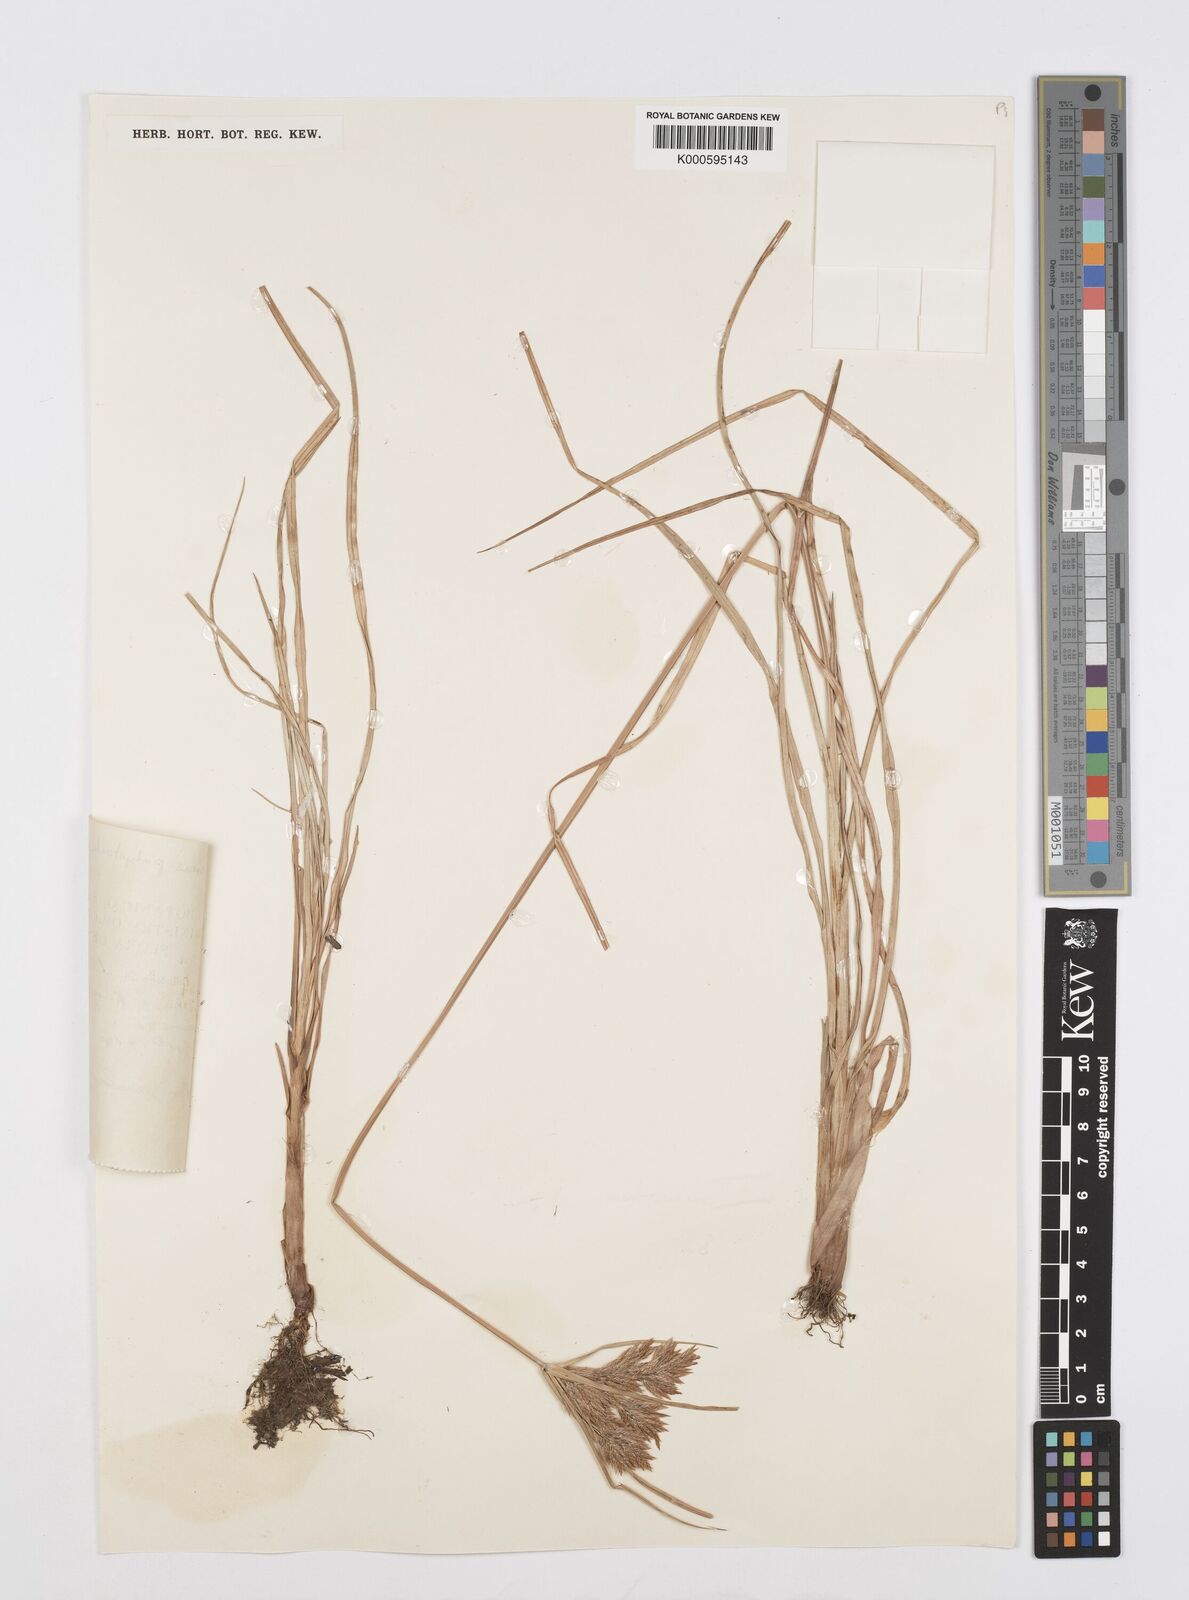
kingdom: Plantae
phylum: Tracheophyta
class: Liliopsida
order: Poales
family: Cyperaceae
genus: Cyperus
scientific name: Cyperus polystachyos
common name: Bunchy flat sedge
